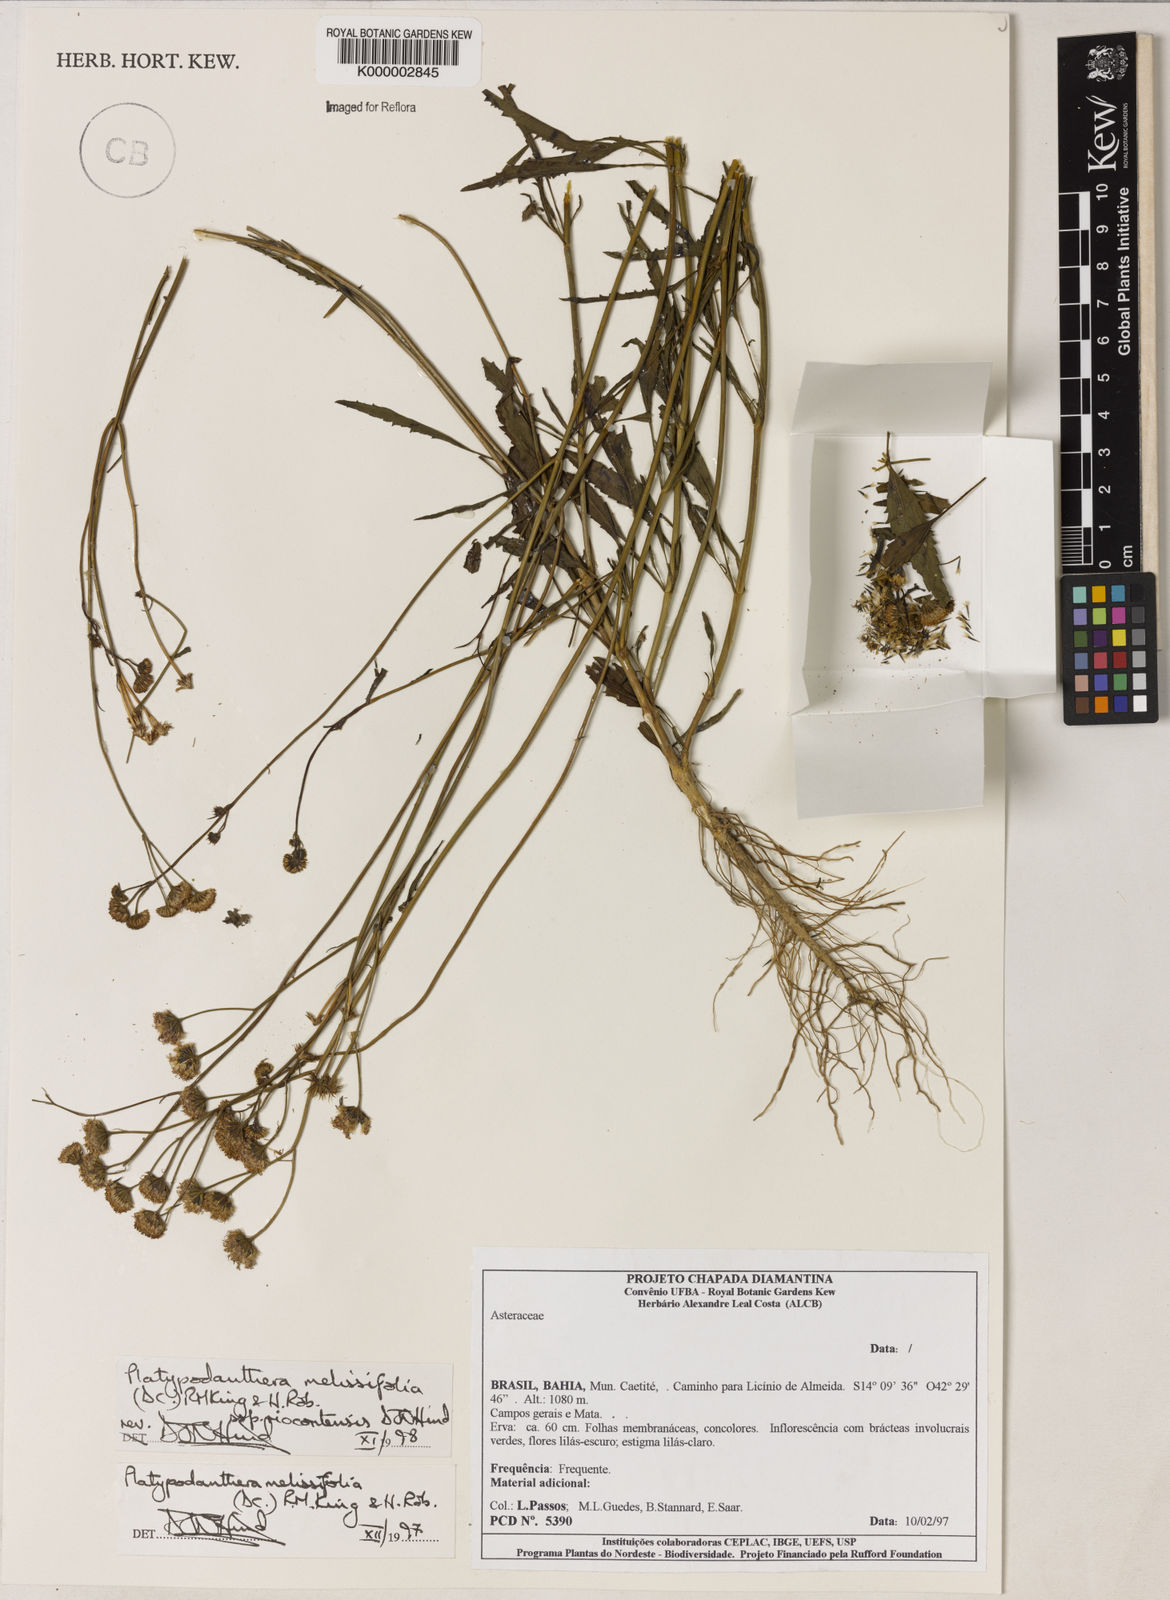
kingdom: Plantae
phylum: Tracheophyta
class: Magnoliopsida
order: Asterales
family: Asteraceae
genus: Platypodanthera
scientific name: Platypodanthera melissifolia
